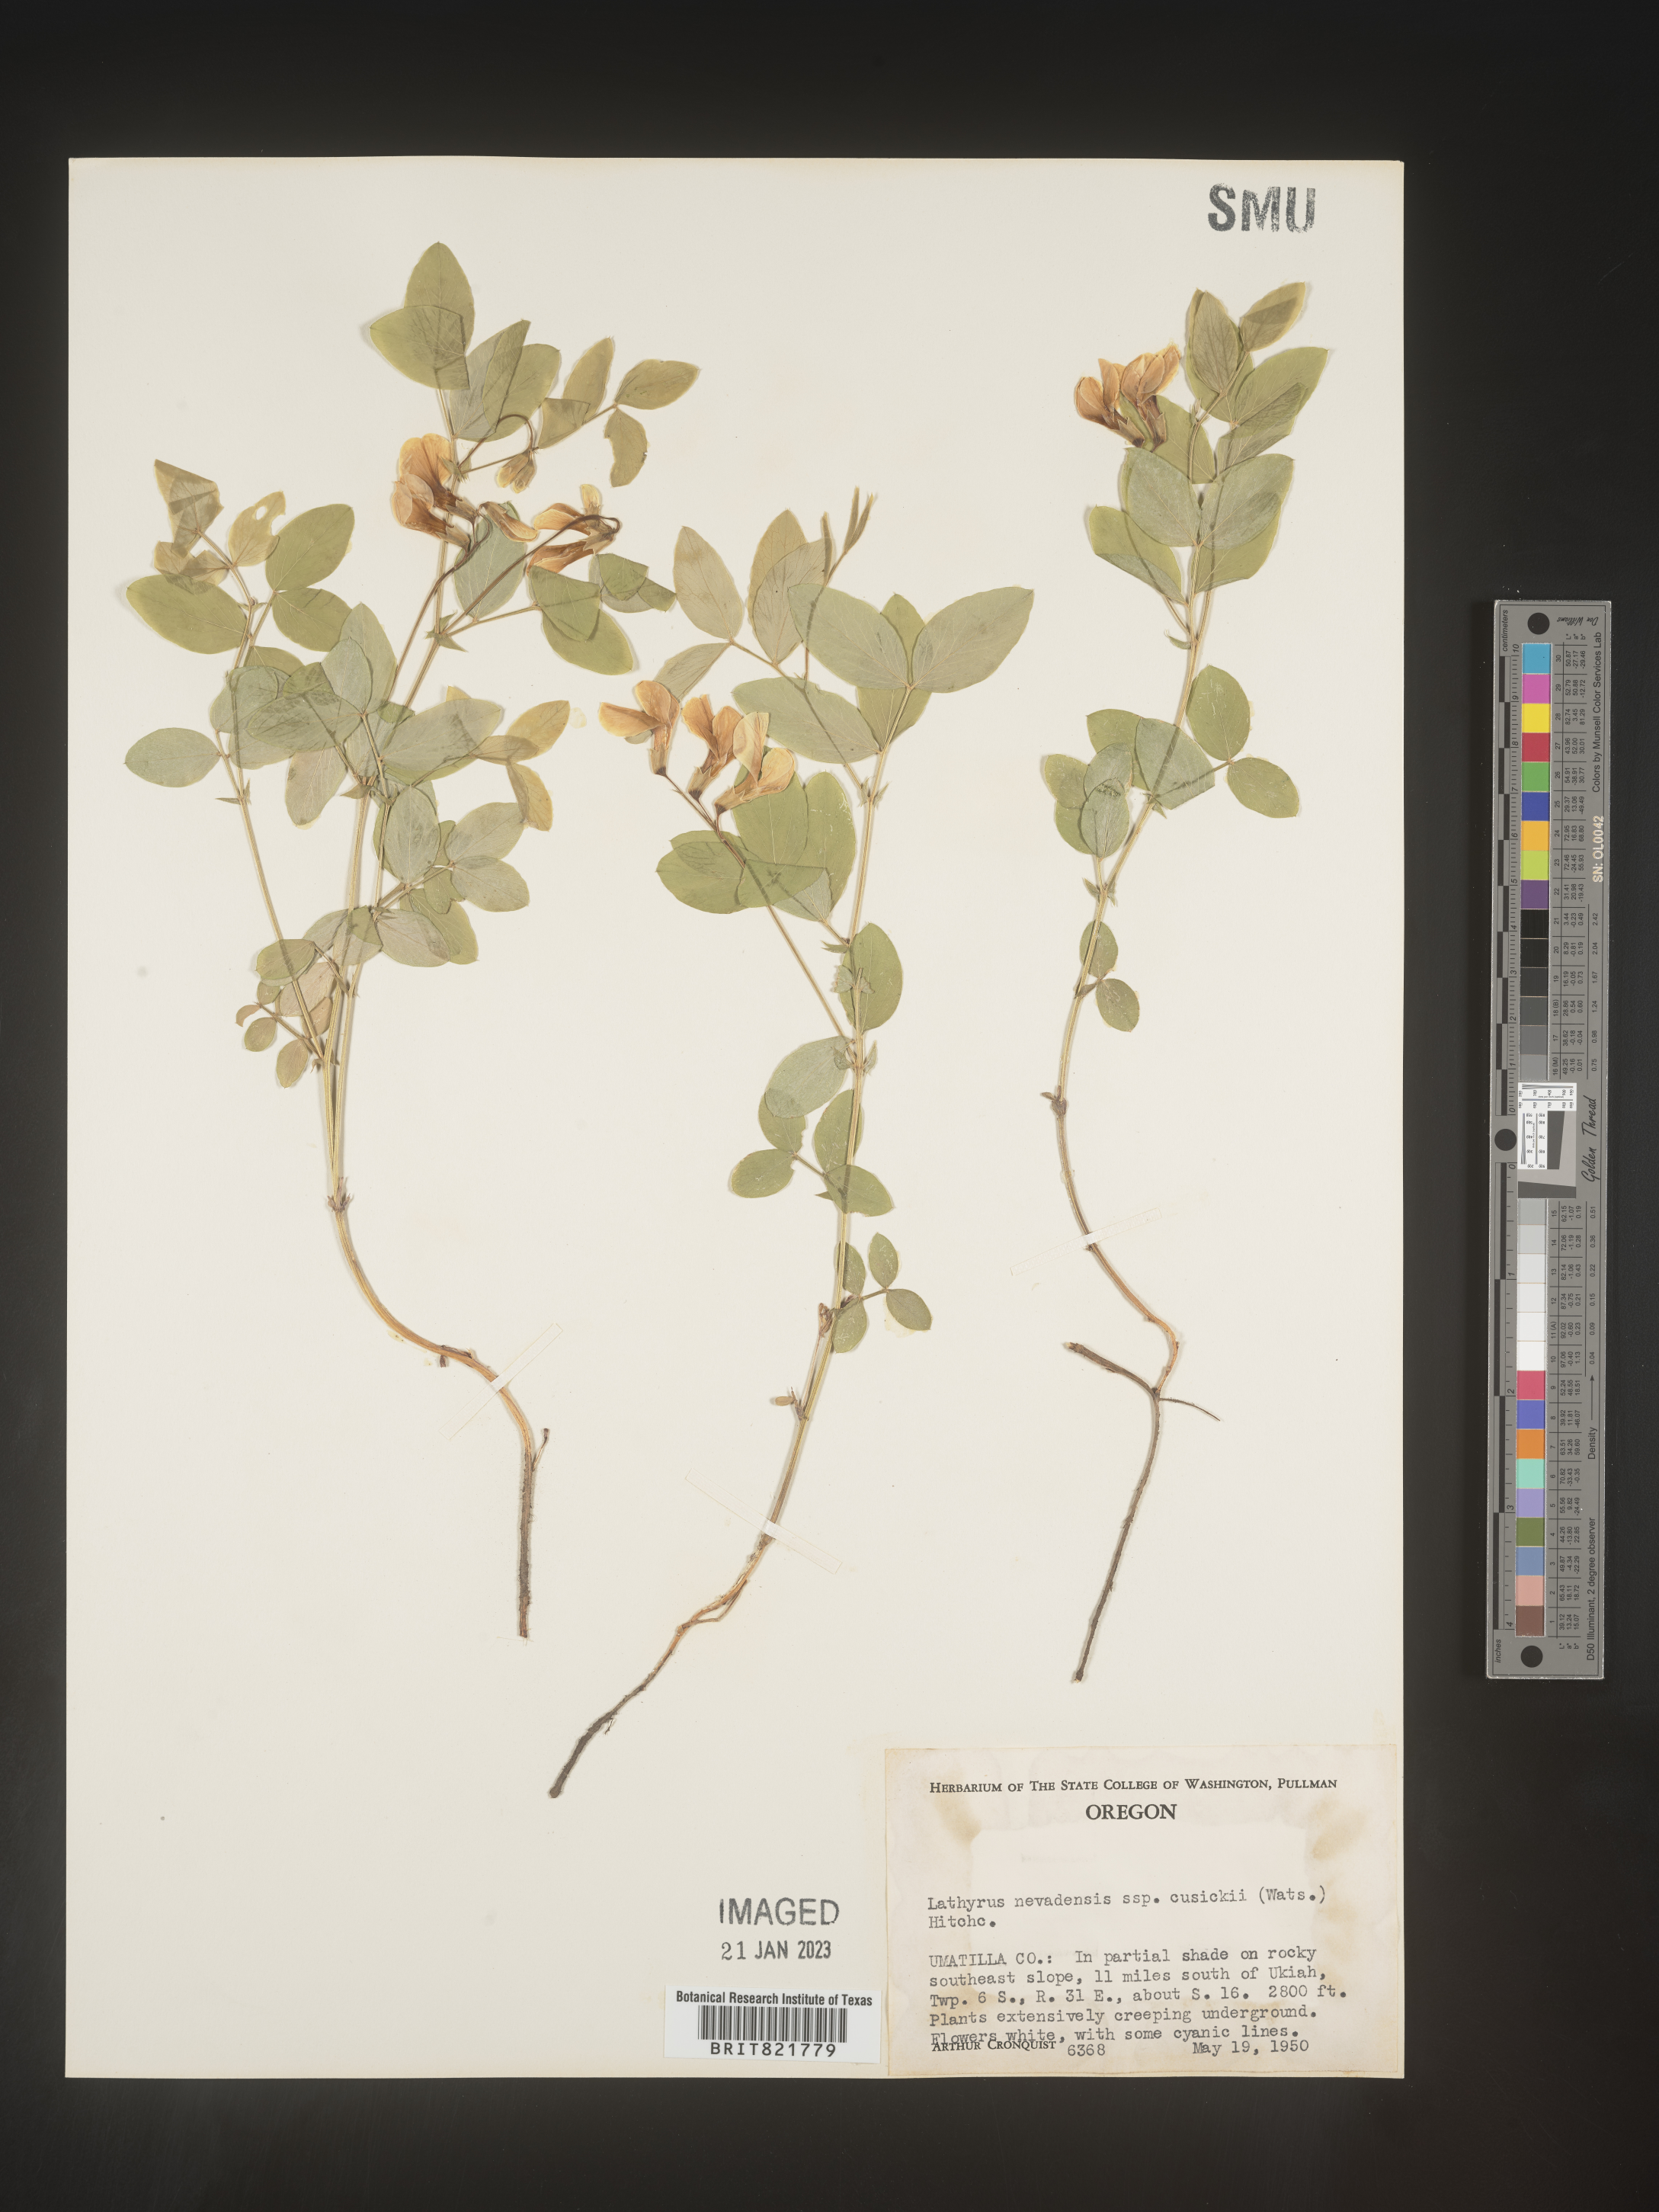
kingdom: Plantae
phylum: Tracheophyta
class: Magnoliopsida
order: Fabales
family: Fabaceae
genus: Lathyrus
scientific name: Lathyrus
